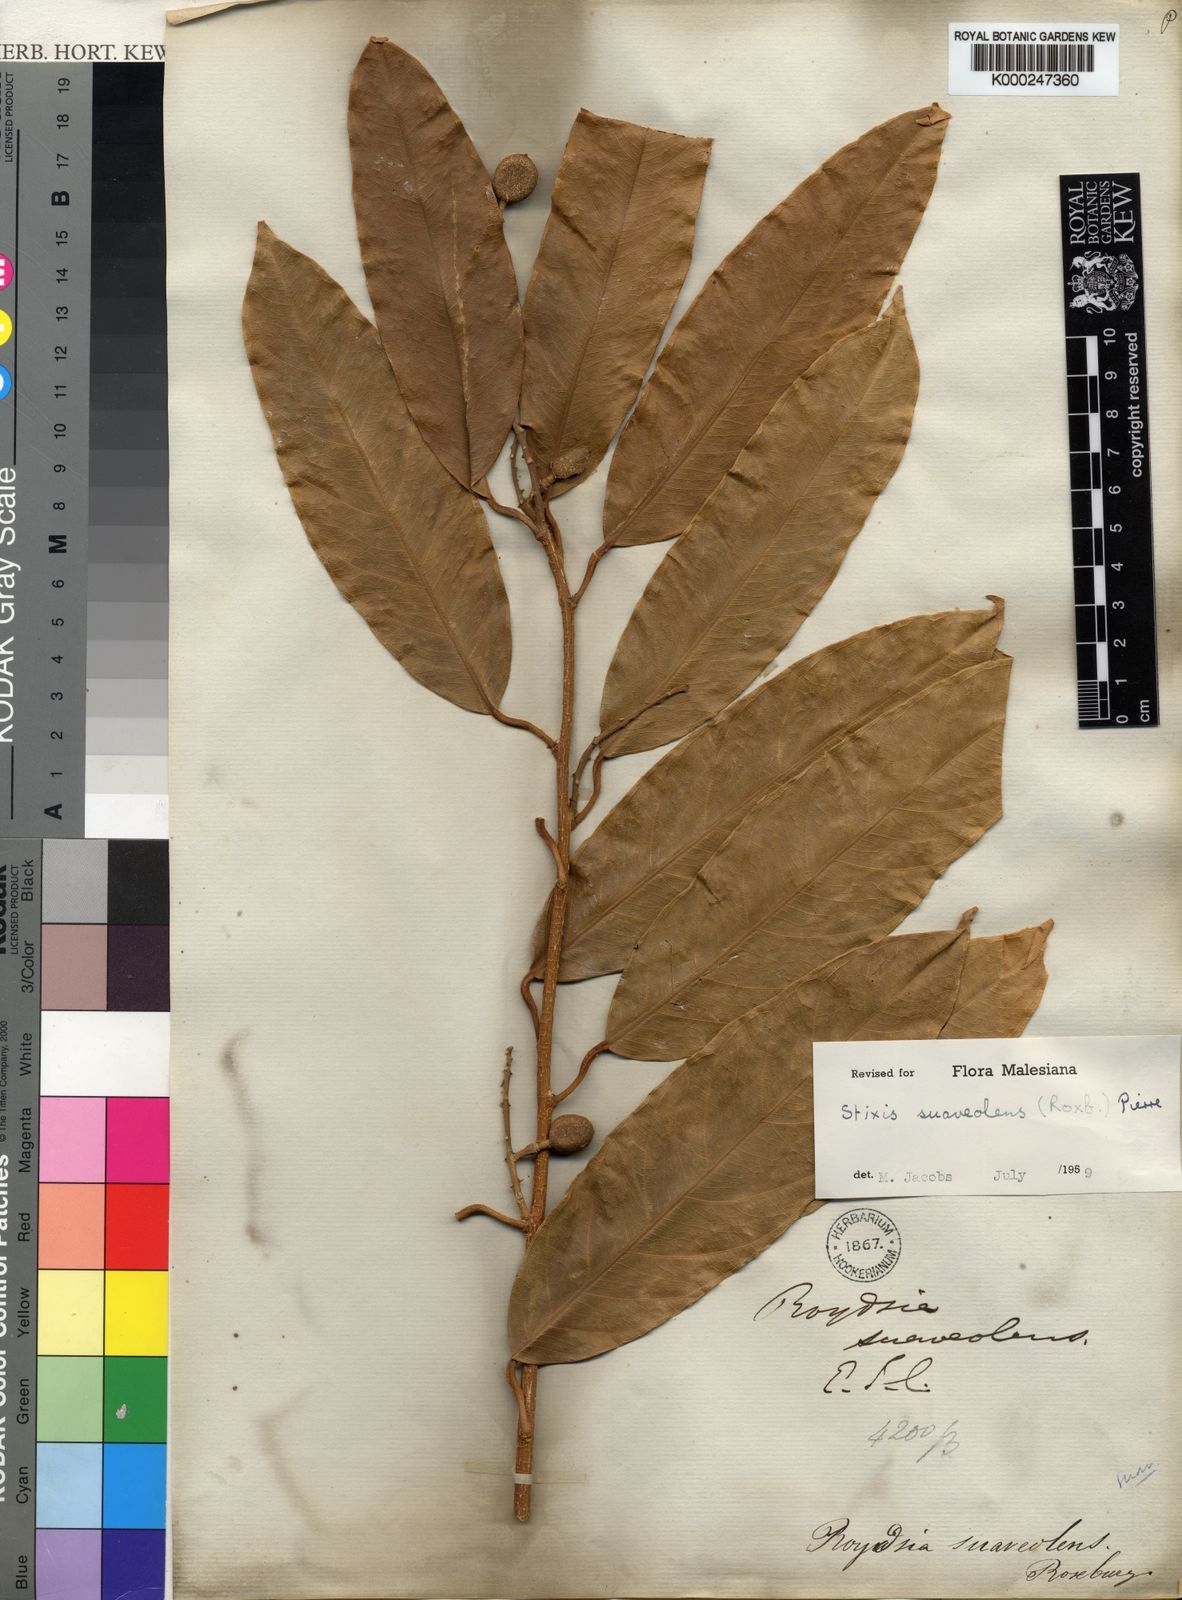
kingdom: Plantae
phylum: Tracheophyta
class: Magnoliopsida
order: Brassicales
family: Stixaceae
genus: Stixis
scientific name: Stixis
